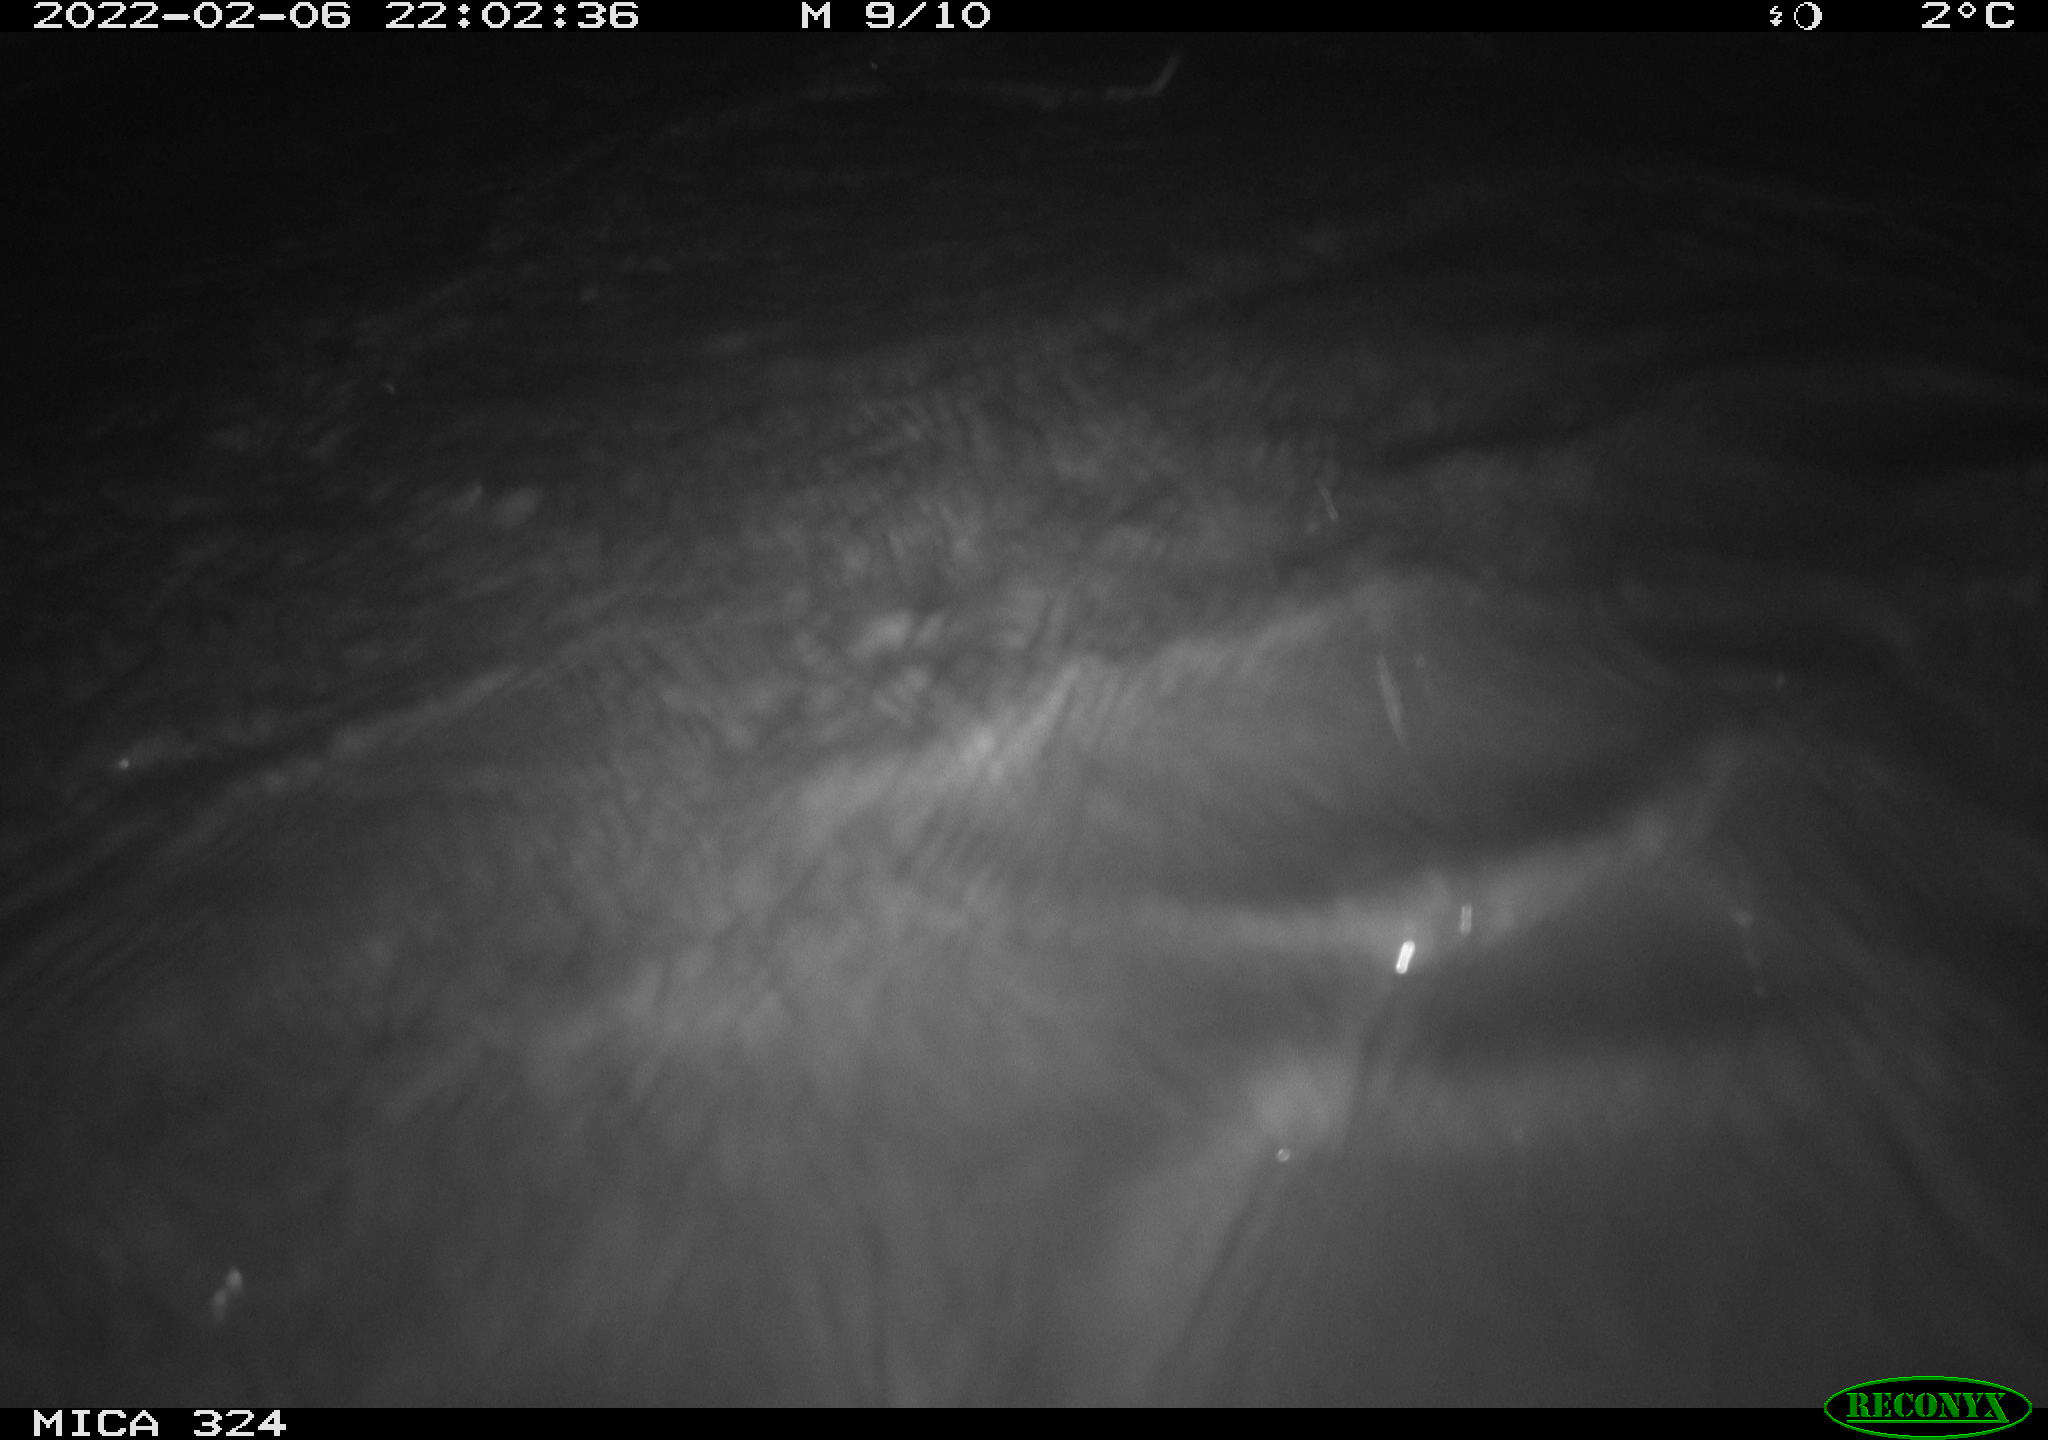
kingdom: Animalia
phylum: Chordata
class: Mammalia
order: Rodentia
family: Cricetidae
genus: Ondatra
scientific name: Ondatra zibethicus
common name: Muskrat
